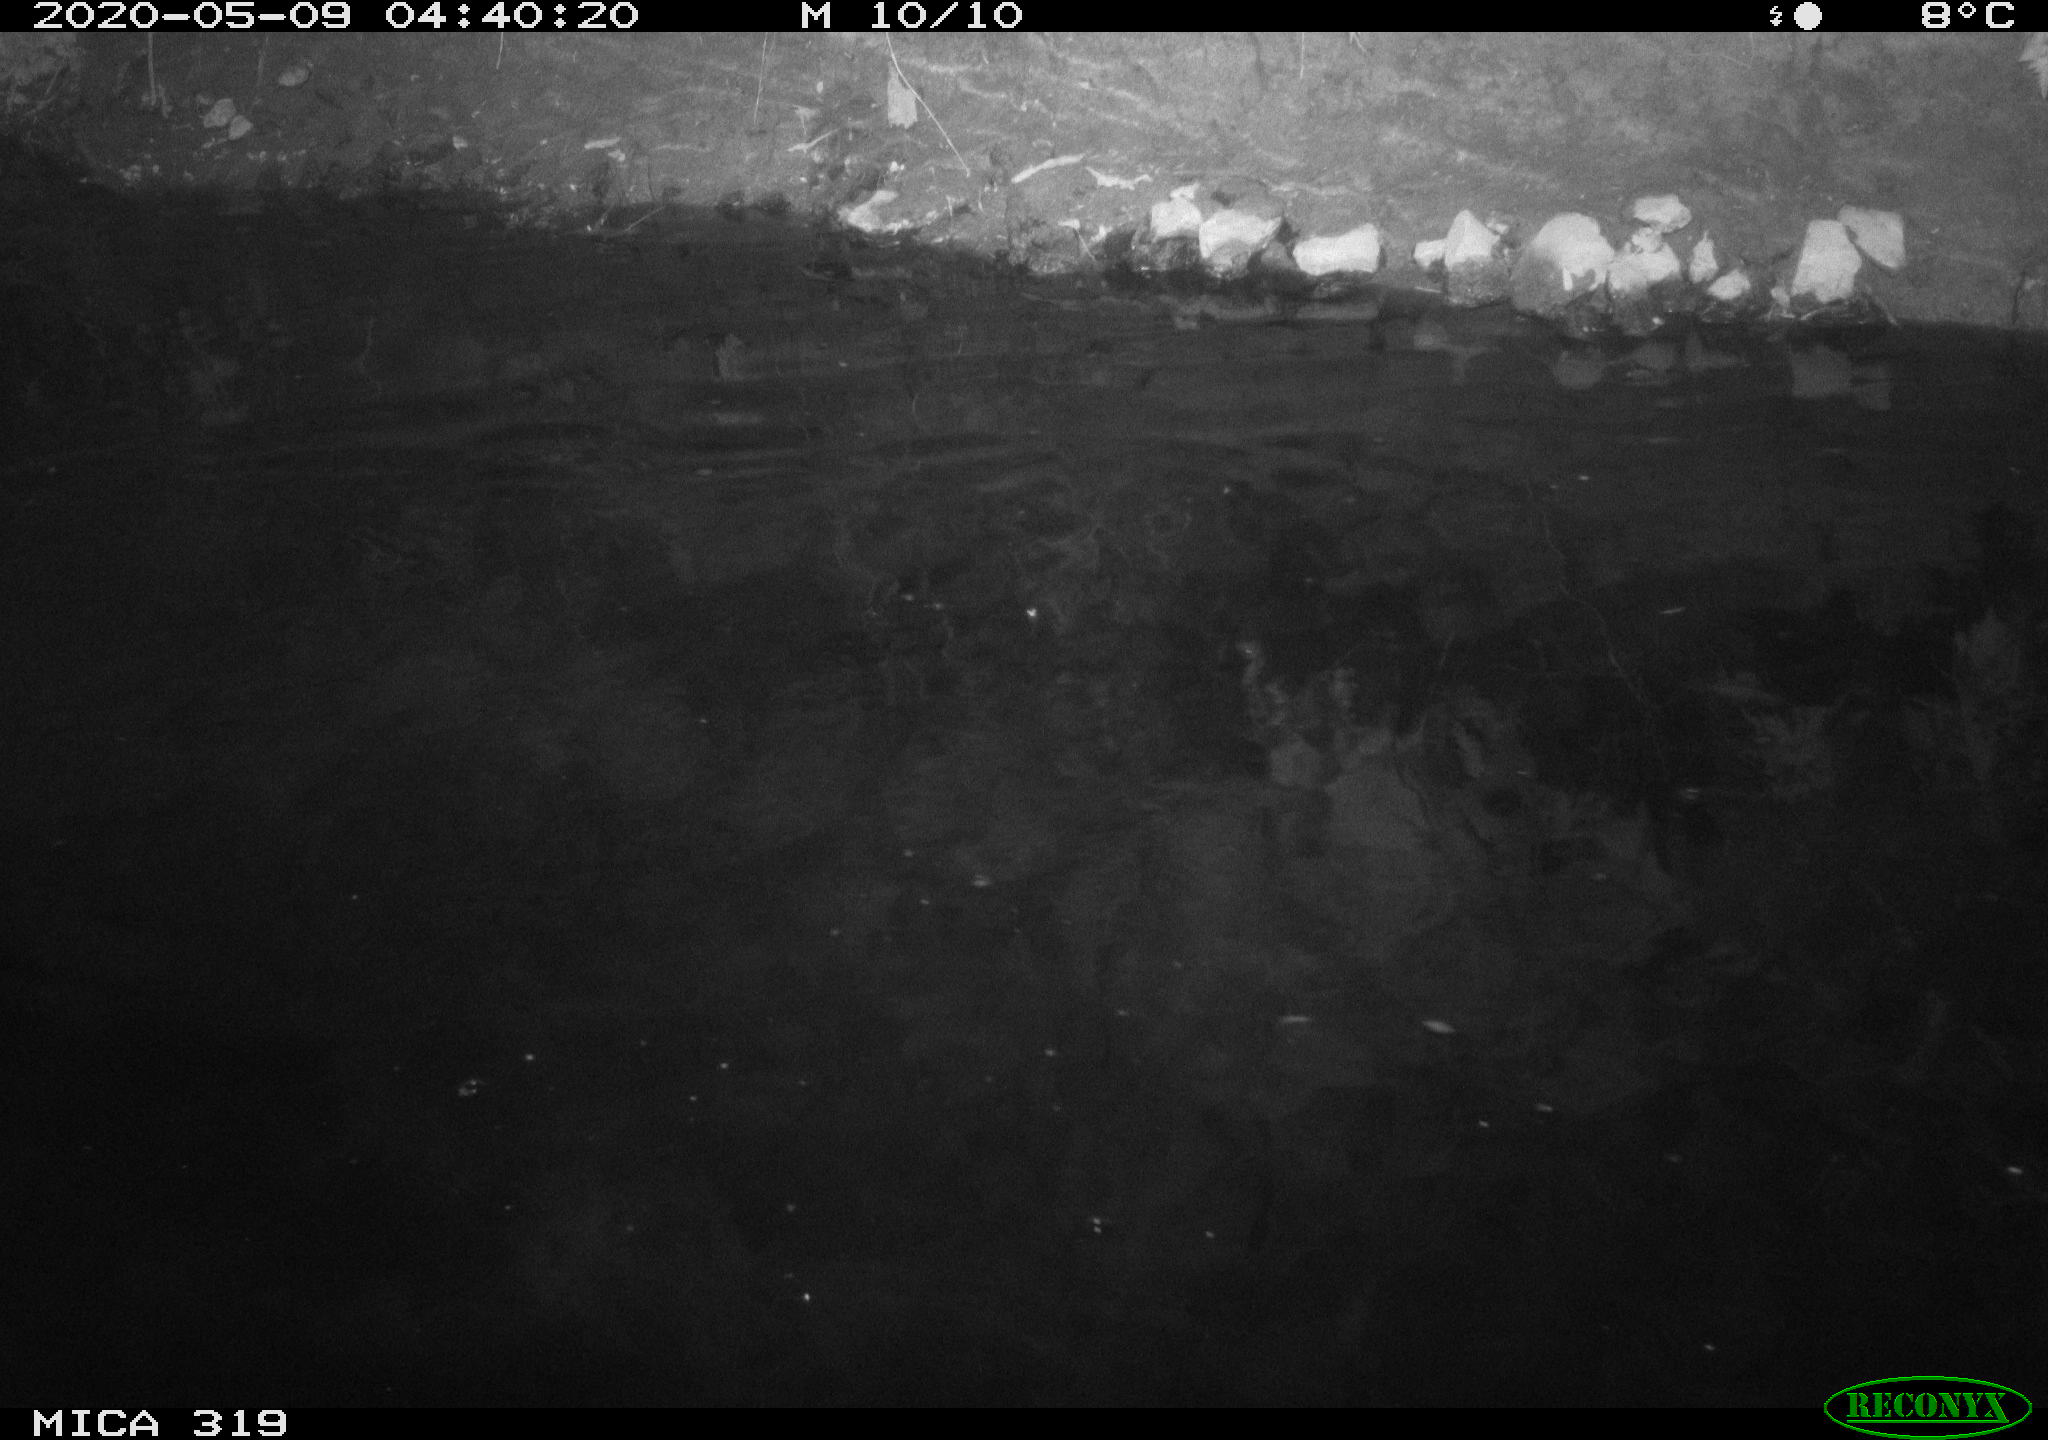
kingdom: Animalia
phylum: Chordata
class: Aves
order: Anseriformes
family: Anatidae
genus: Anas
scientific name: Anas platyrhynchos
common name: Mallard
